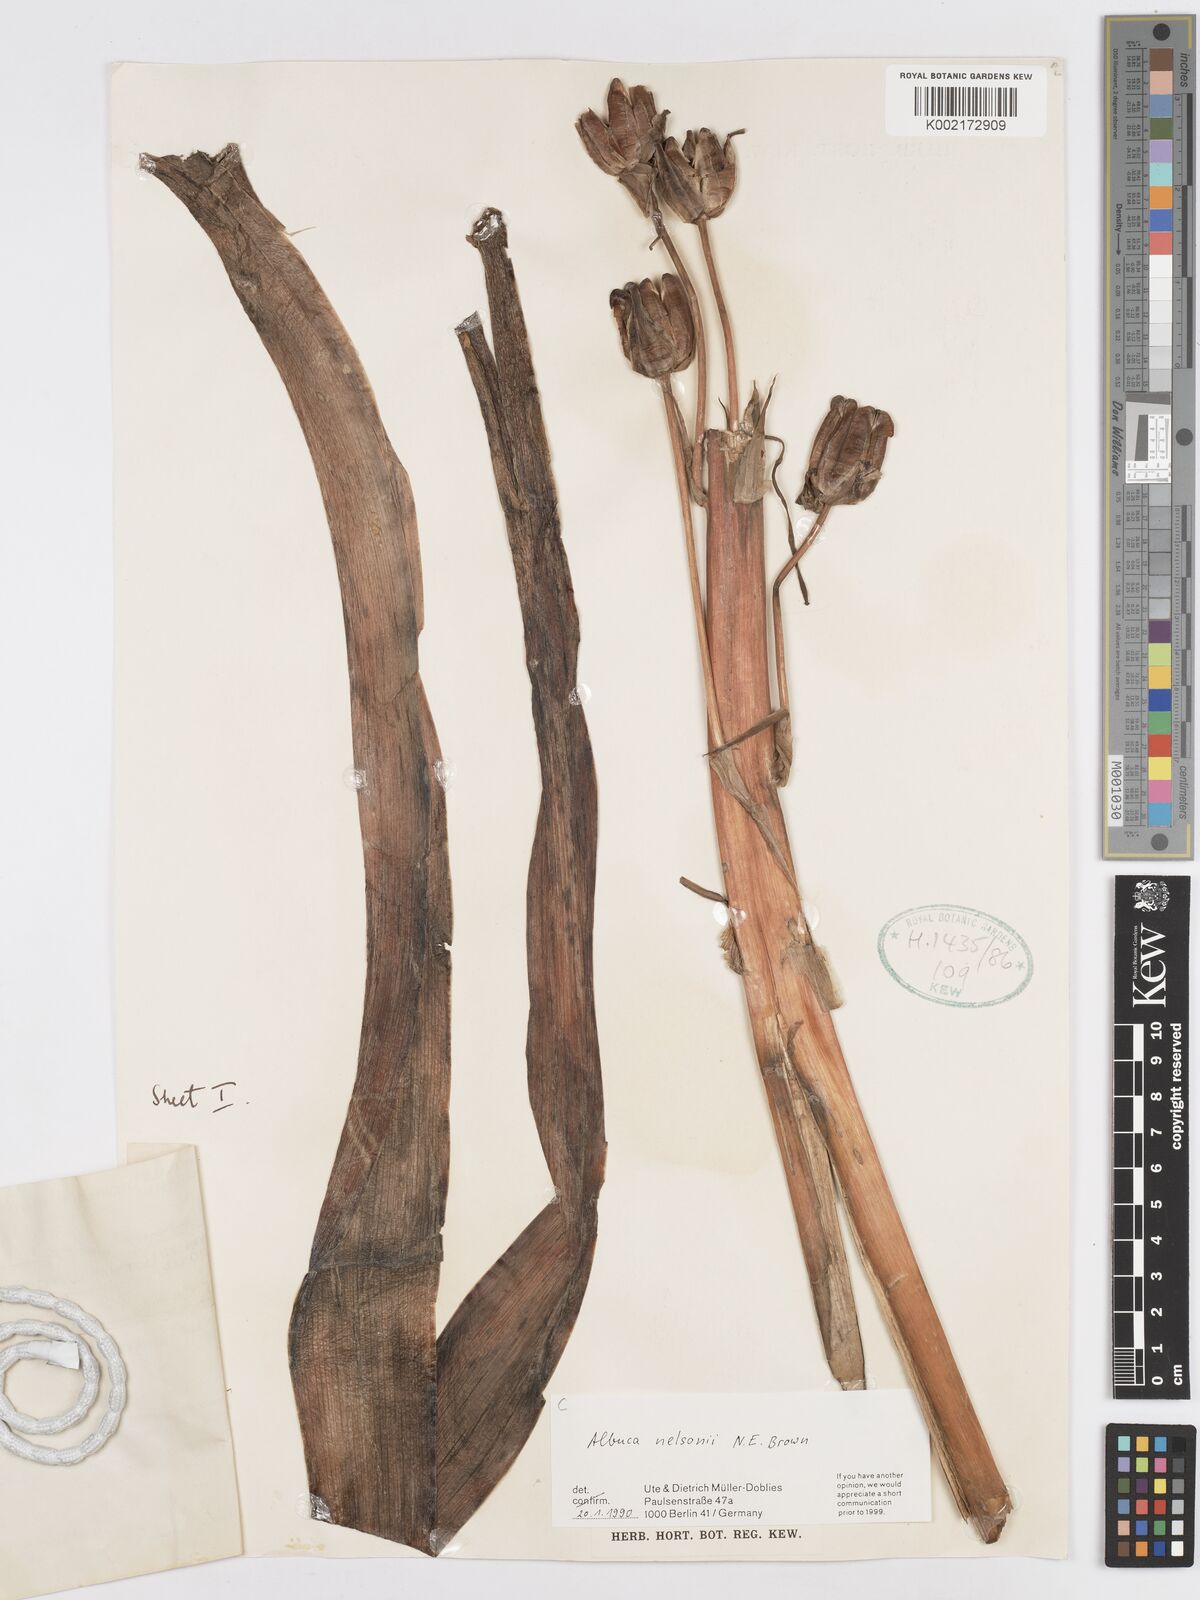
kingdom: Plantae
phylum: Tracheophyta
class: Liliopsida
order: Asparagales
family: Asparagaceae
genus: Albuca
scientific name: Albuca nelsonii
